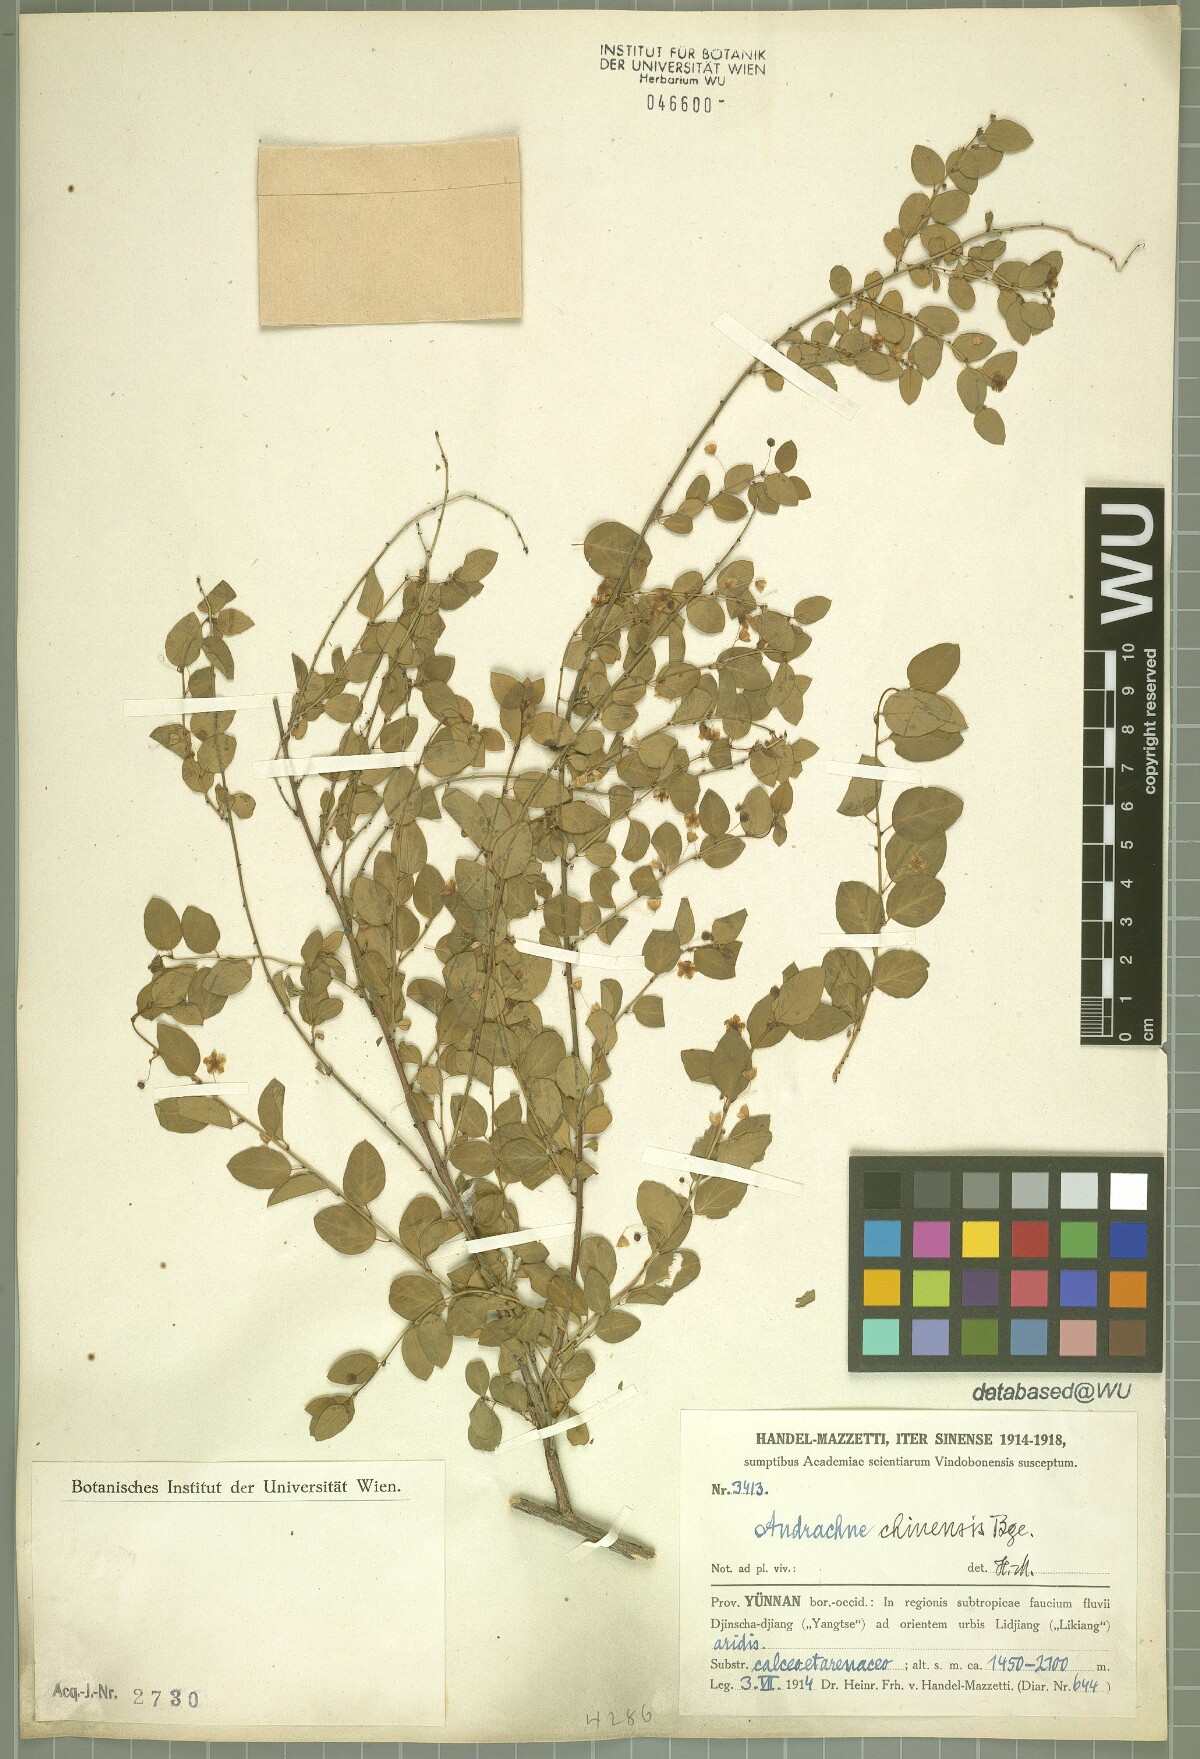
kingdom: Plantae
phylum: Tracheophyta
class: Magnoliopsida
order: Malpighiales
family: Phyllanthaceae
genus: Leptopus
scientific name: Leptopus chinensis
